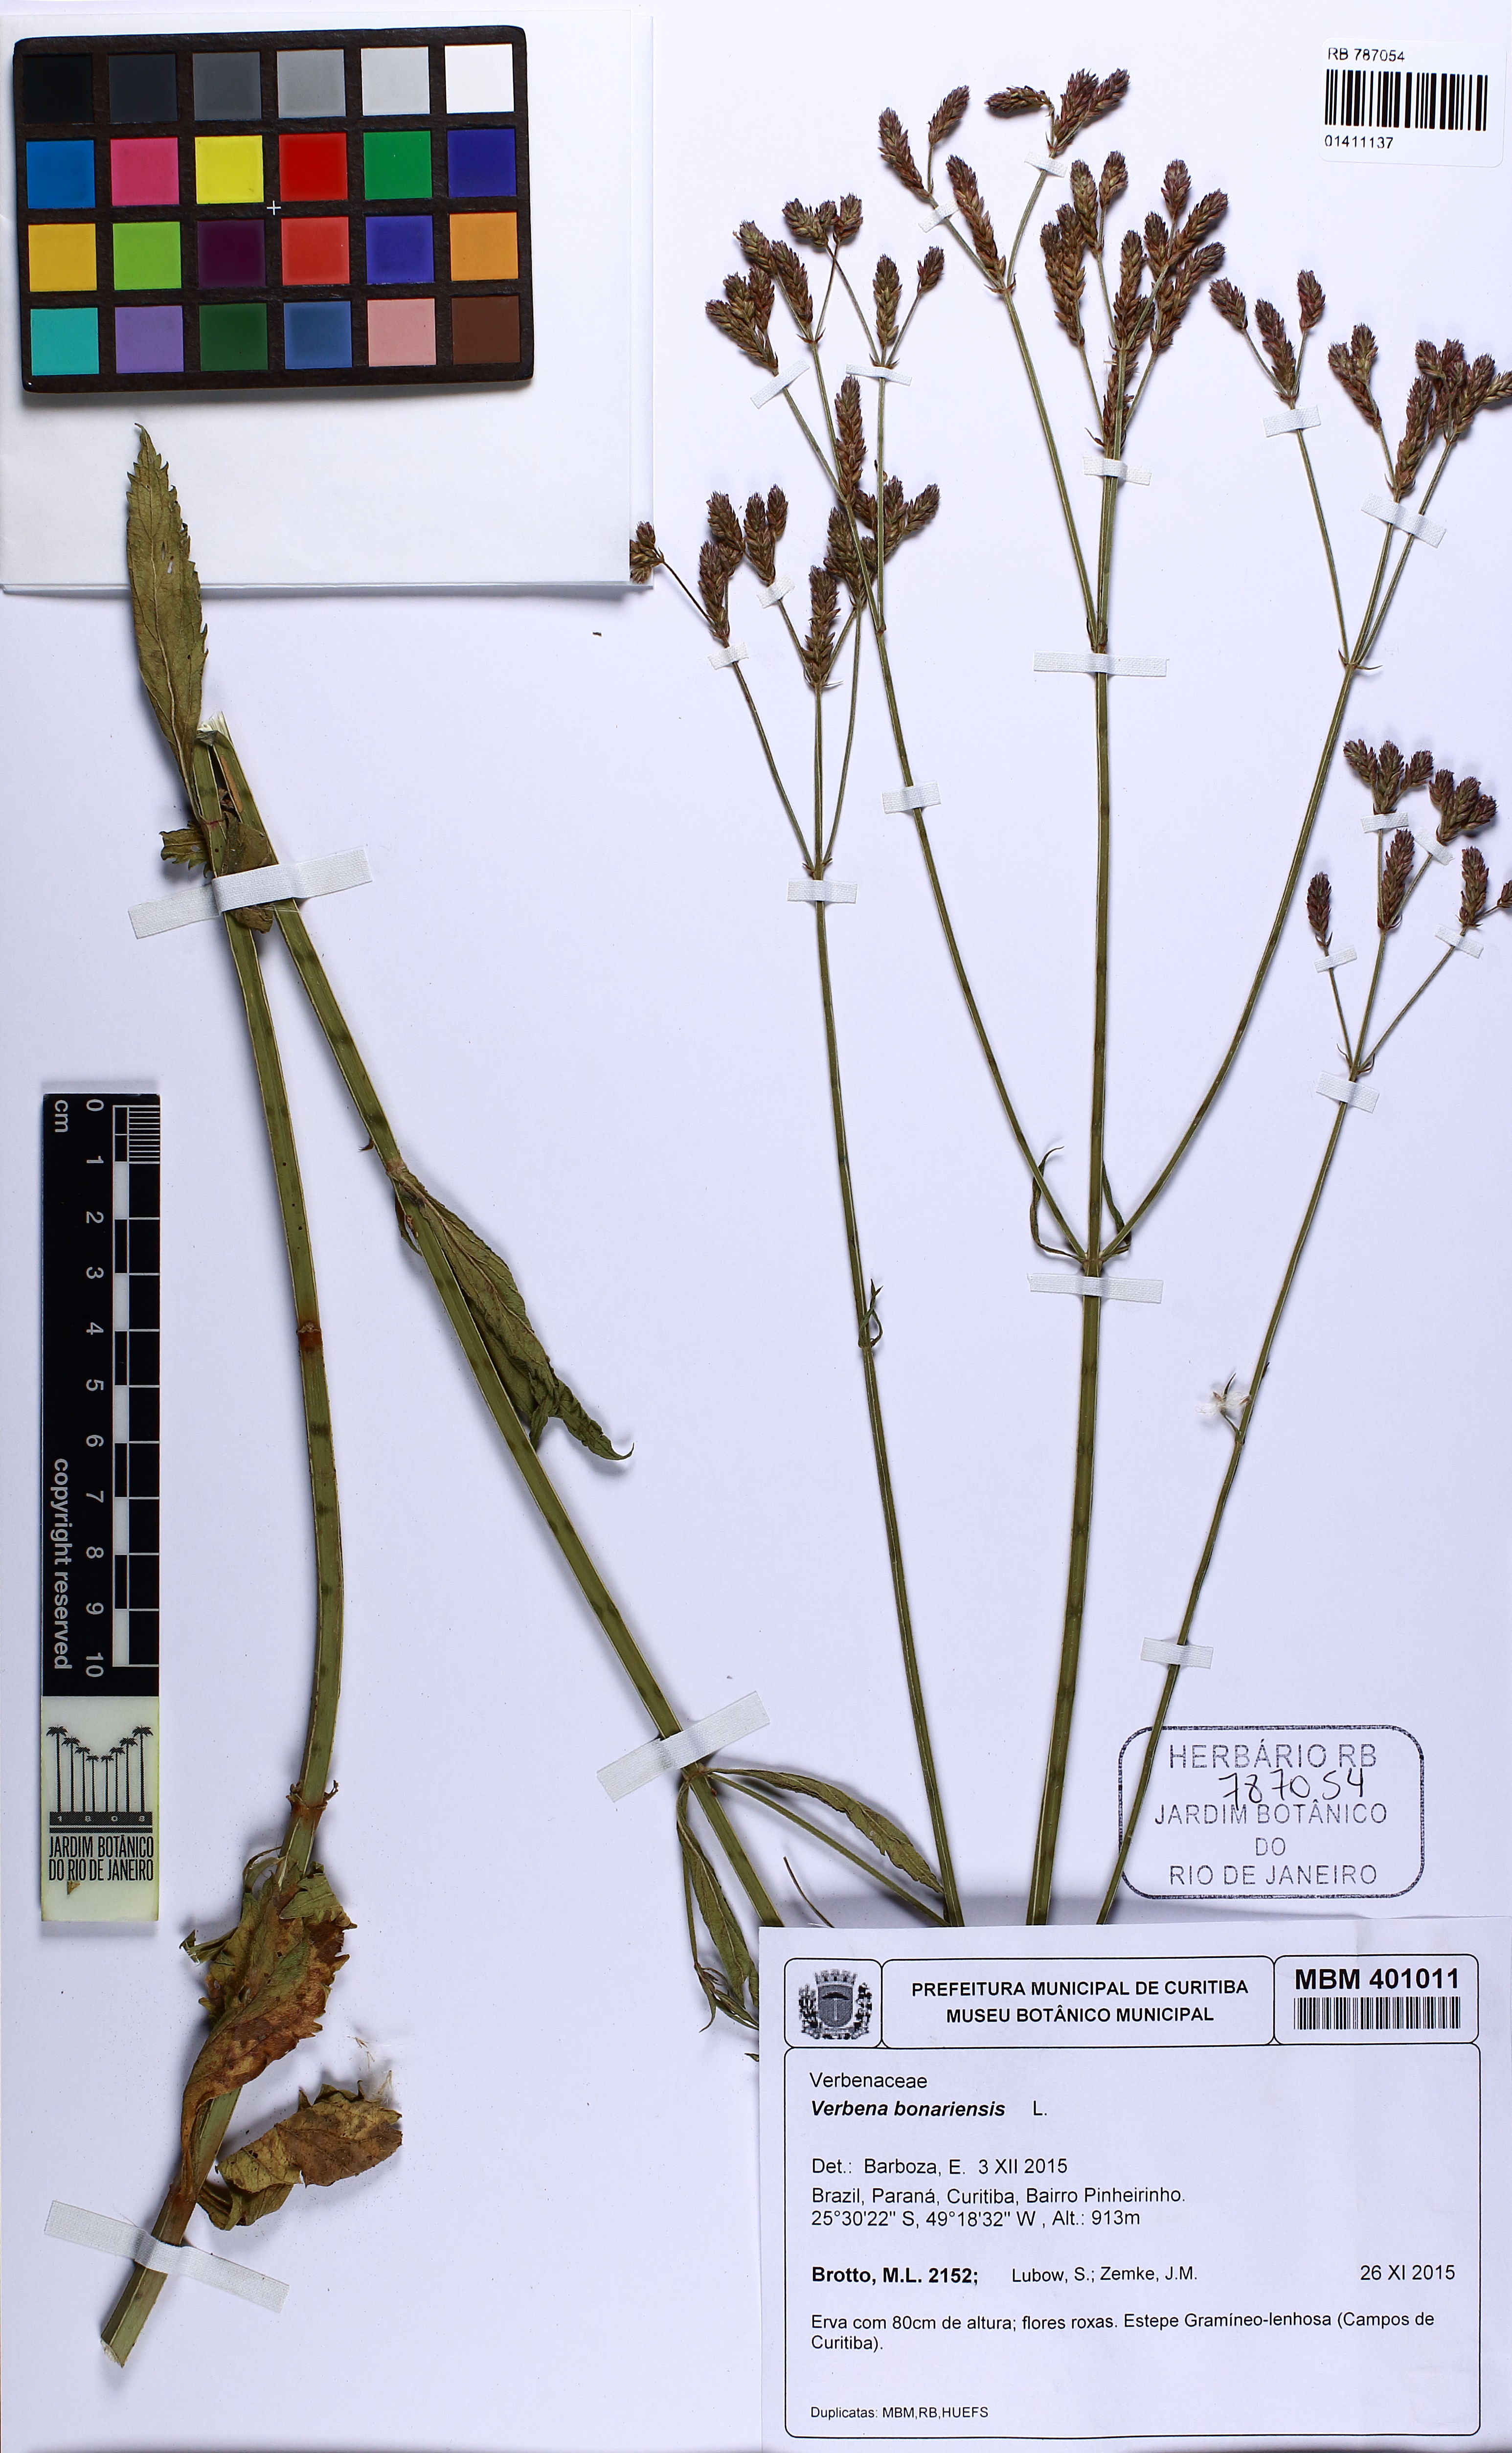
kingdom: Plantae
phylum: Tracheophyta
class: Magnoliopsida
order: Lamiales
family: Verbenaceae
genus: Verbena
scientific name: Verbena bonariensis
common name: Purpletop vervain
